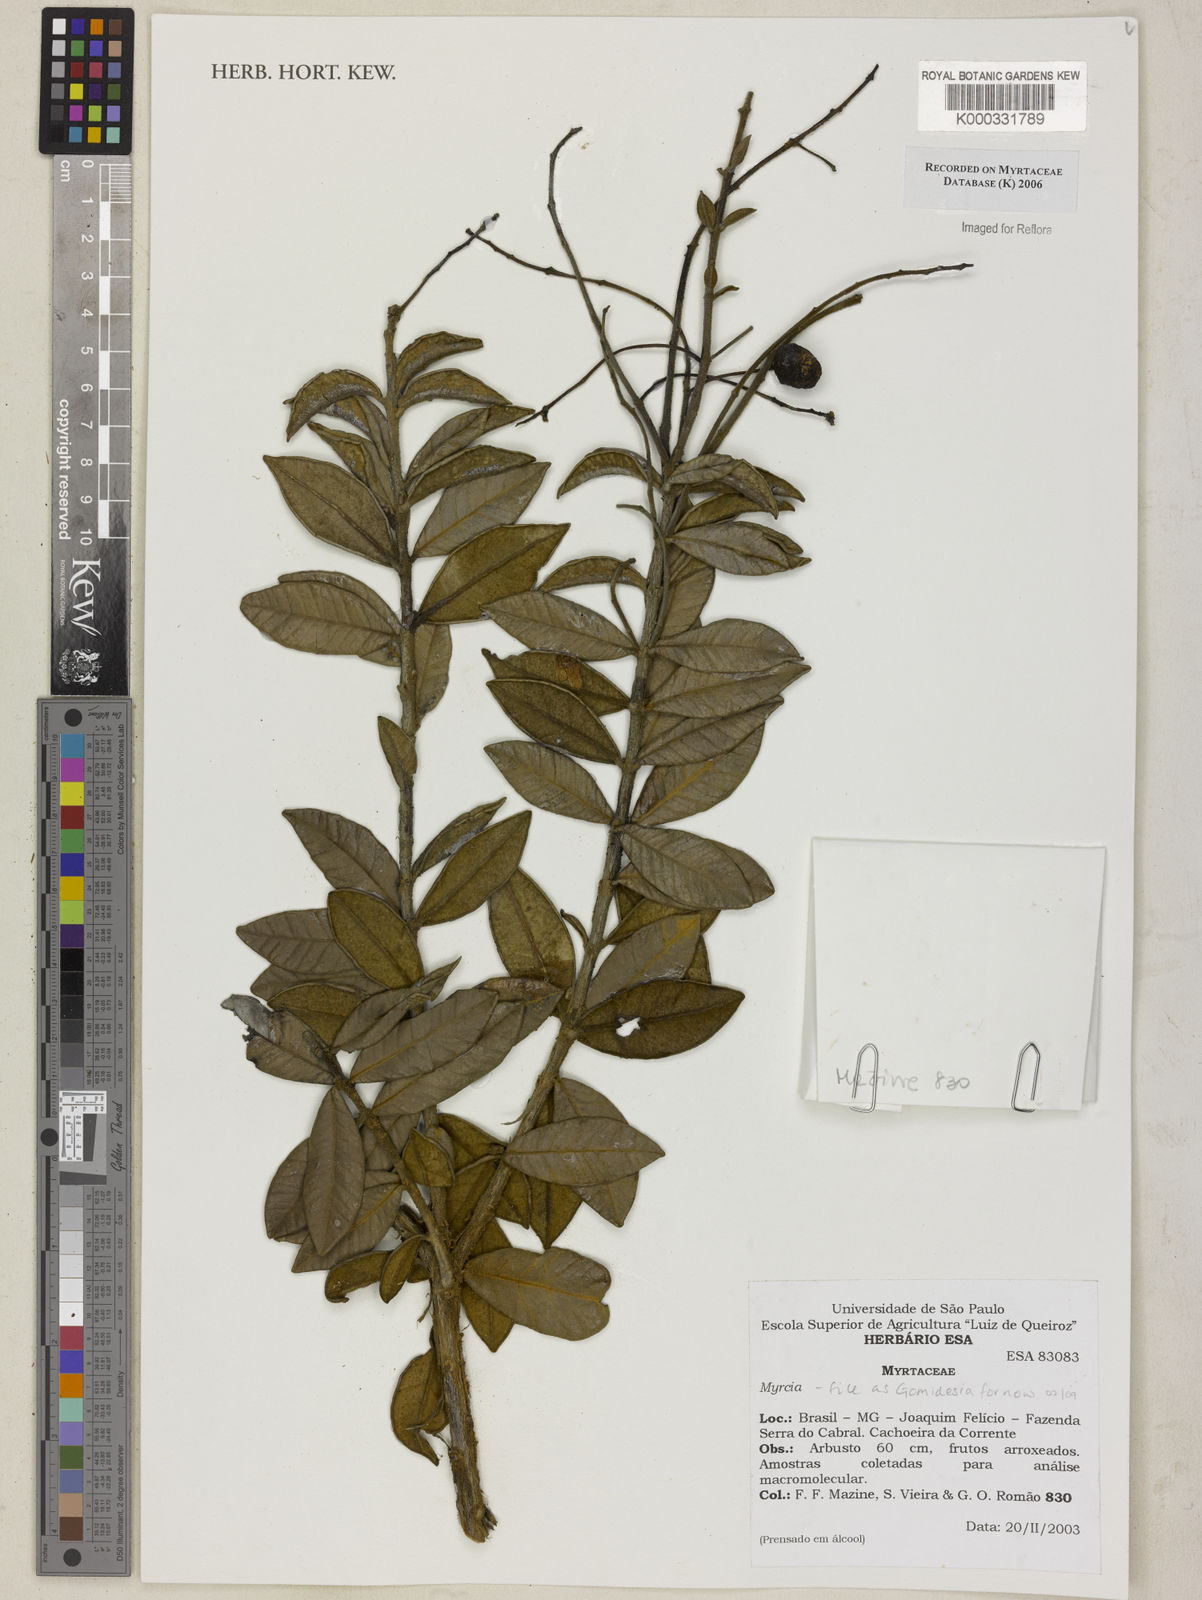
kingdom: Plantae
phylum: Tracheophyta
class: Magnoliopsida
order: Myrtales
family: Myrtaceae
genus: Myrcia
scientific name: Myrcia
